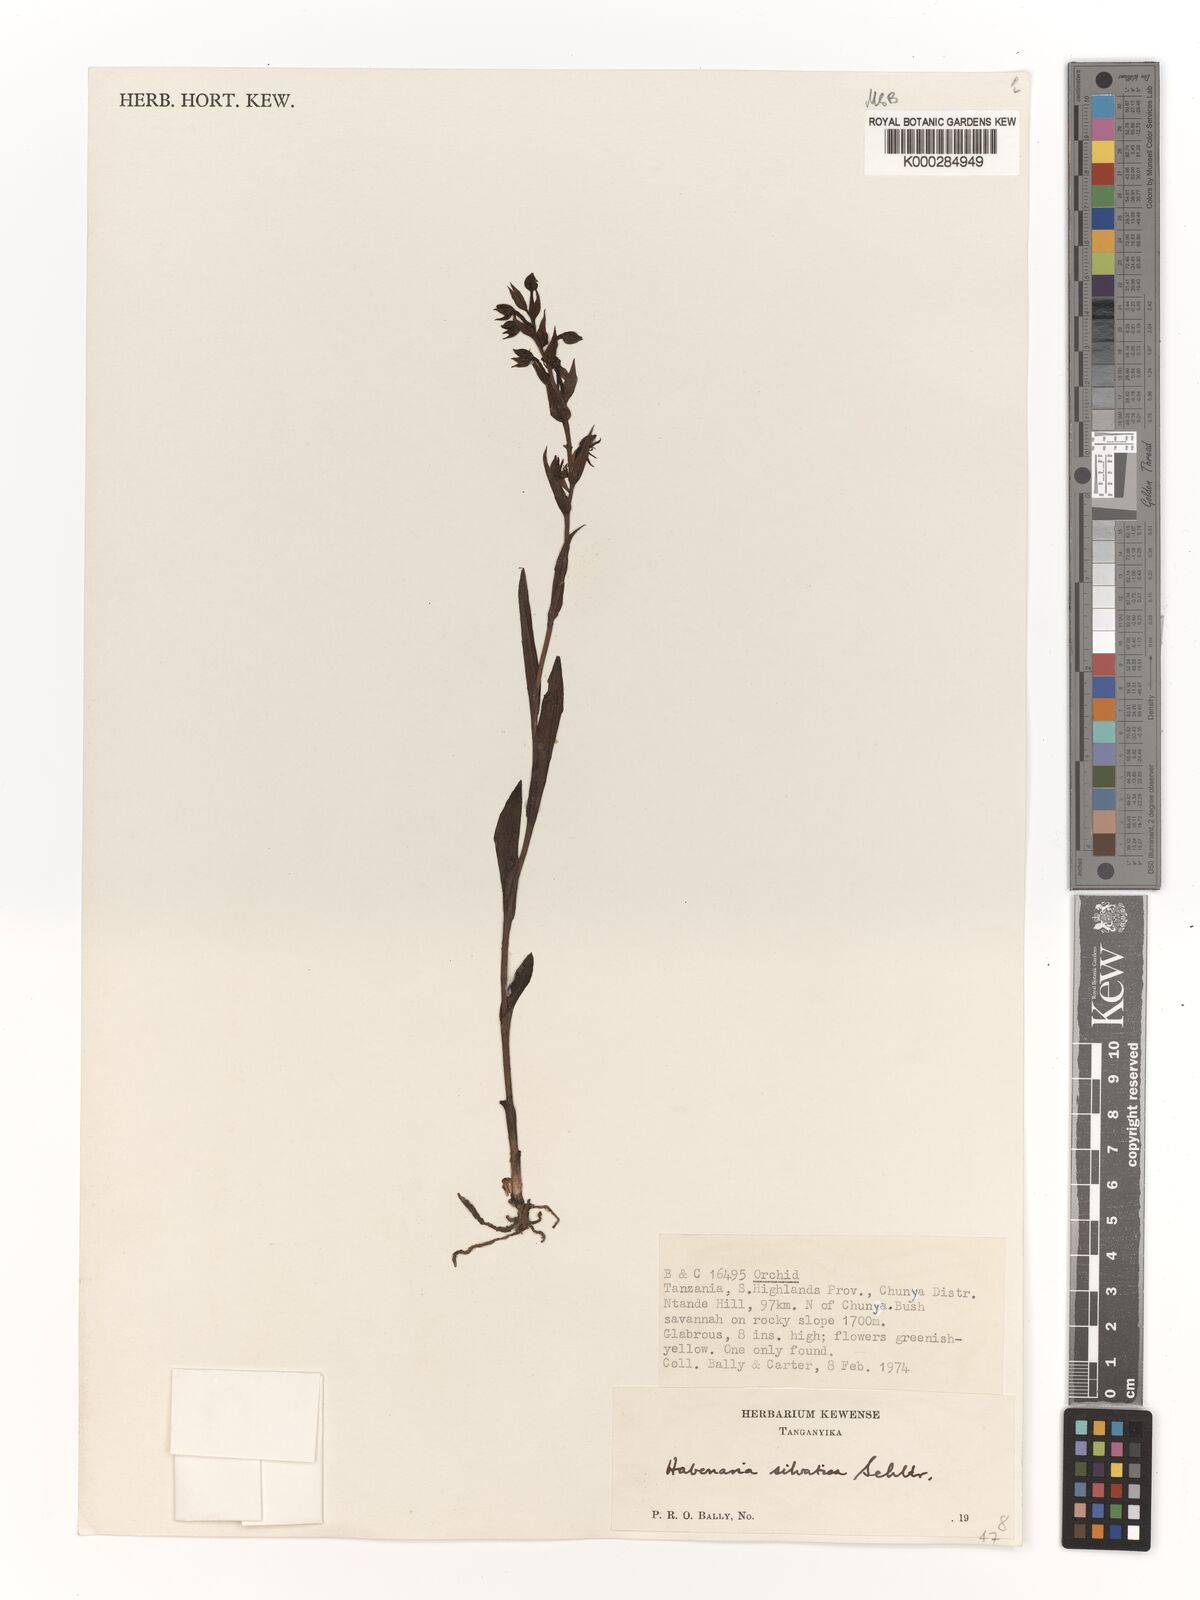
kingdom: Plantae
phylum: Tracheophyta
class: Liliopsida
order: Asparagales
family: Orchidaceae
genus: Habenaria
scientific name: Habenaria silvatica
